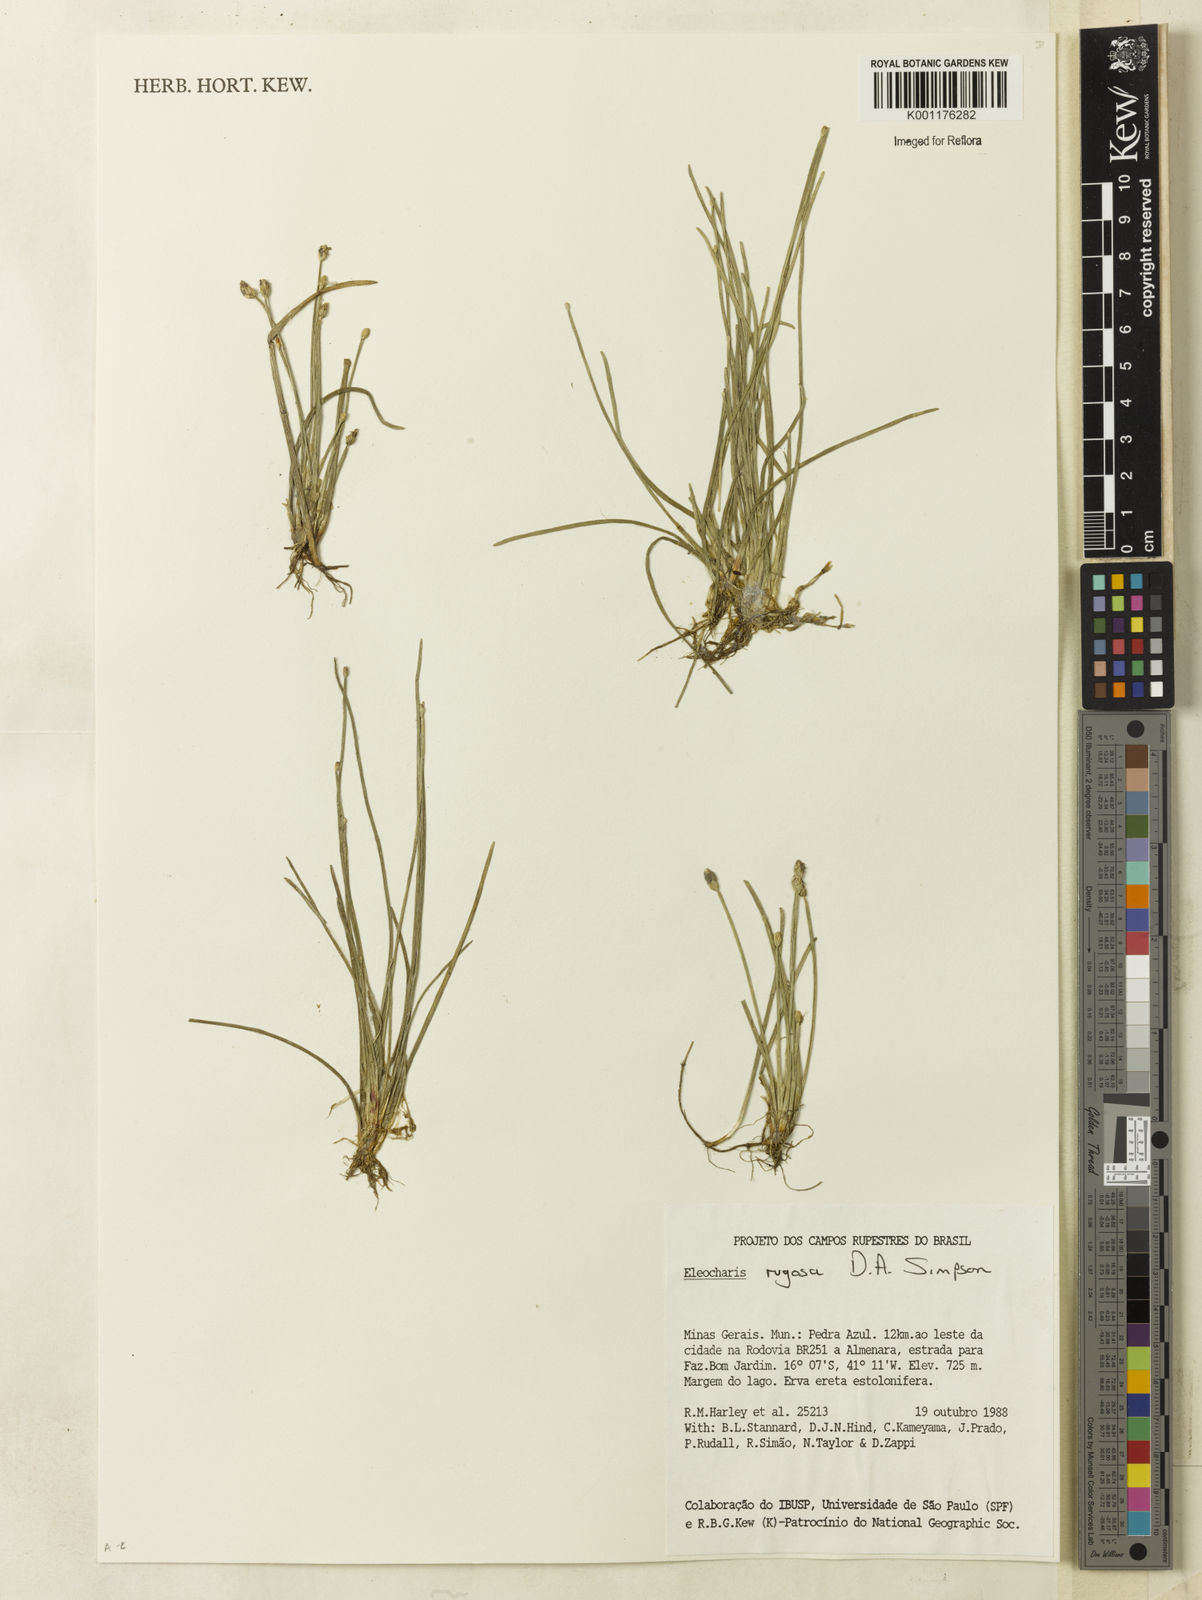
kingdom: Plantae
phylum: Tracheophyta
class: Liliopsida
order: Poales
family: Cyperaceae
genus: Eleocharis
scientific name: Eleocharis rugosa
